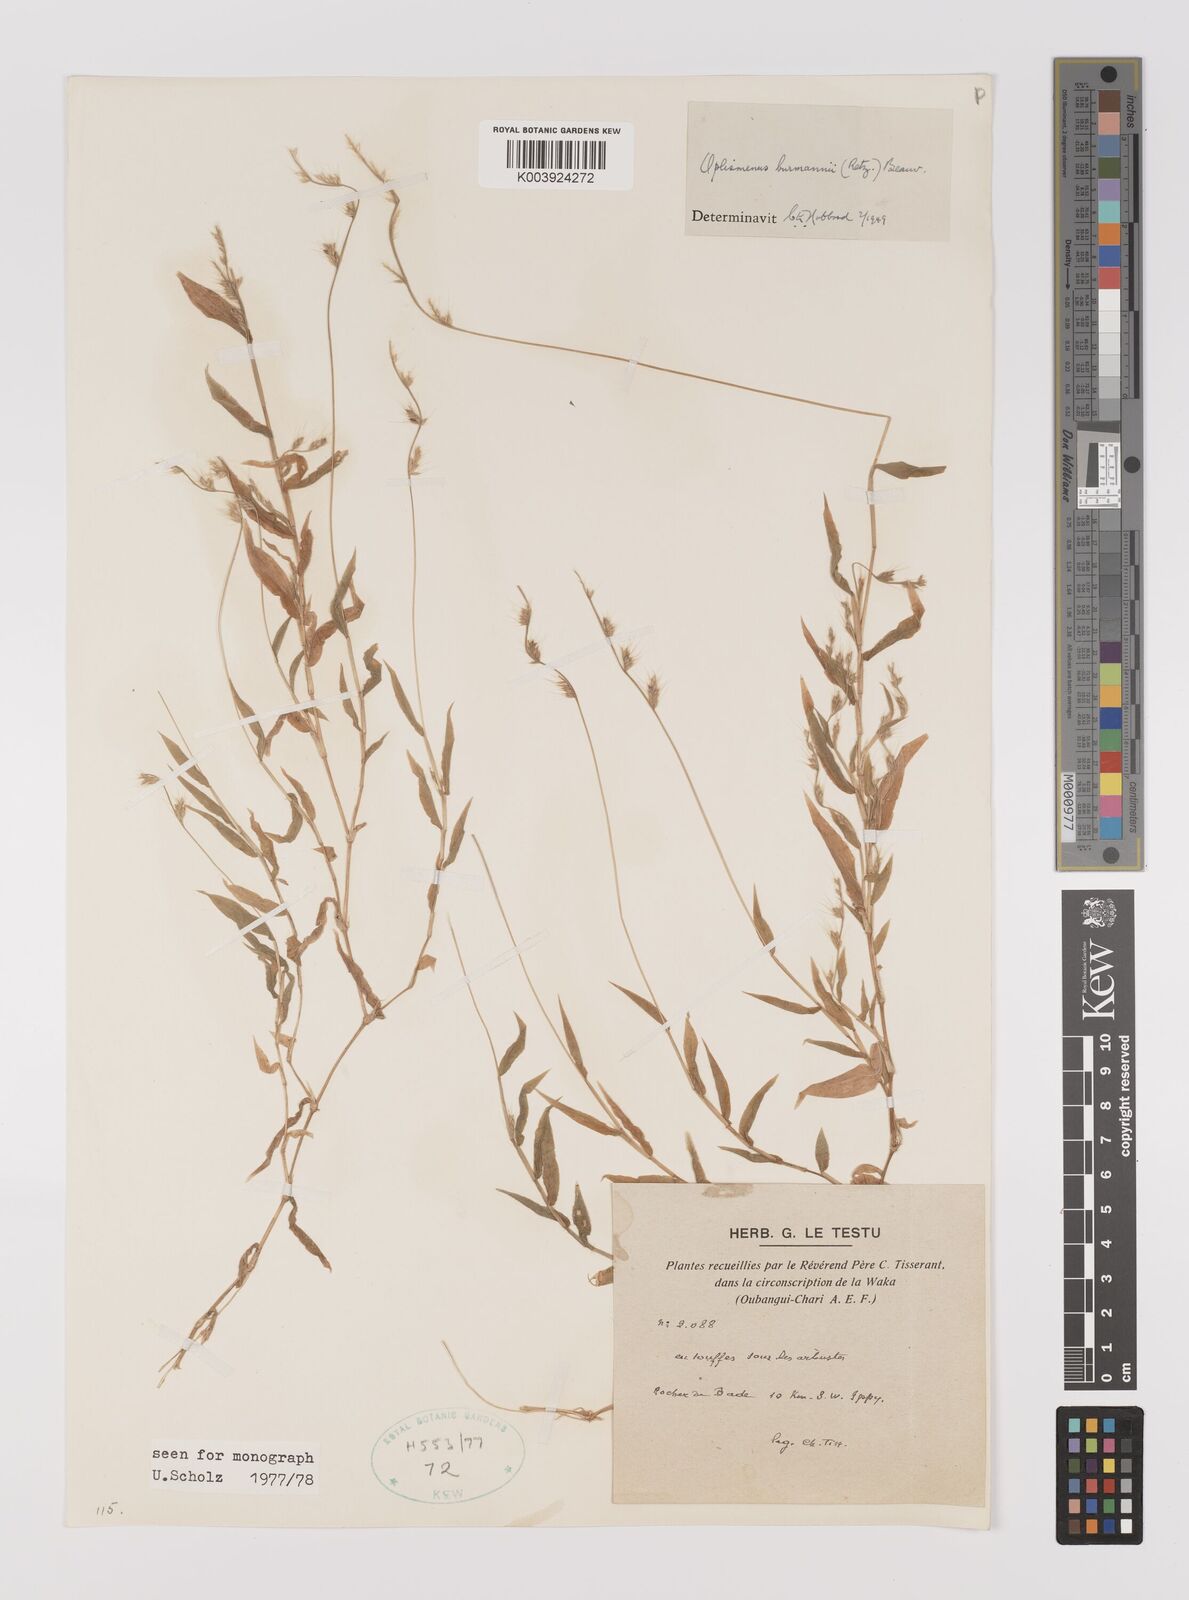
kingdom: Plantae
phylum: Tracheophyta
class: Liliopsida
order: Poales
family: Poaceae
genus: Oplismenus
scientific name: Oplismenus burmanni
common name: Burmann's basketgrass
